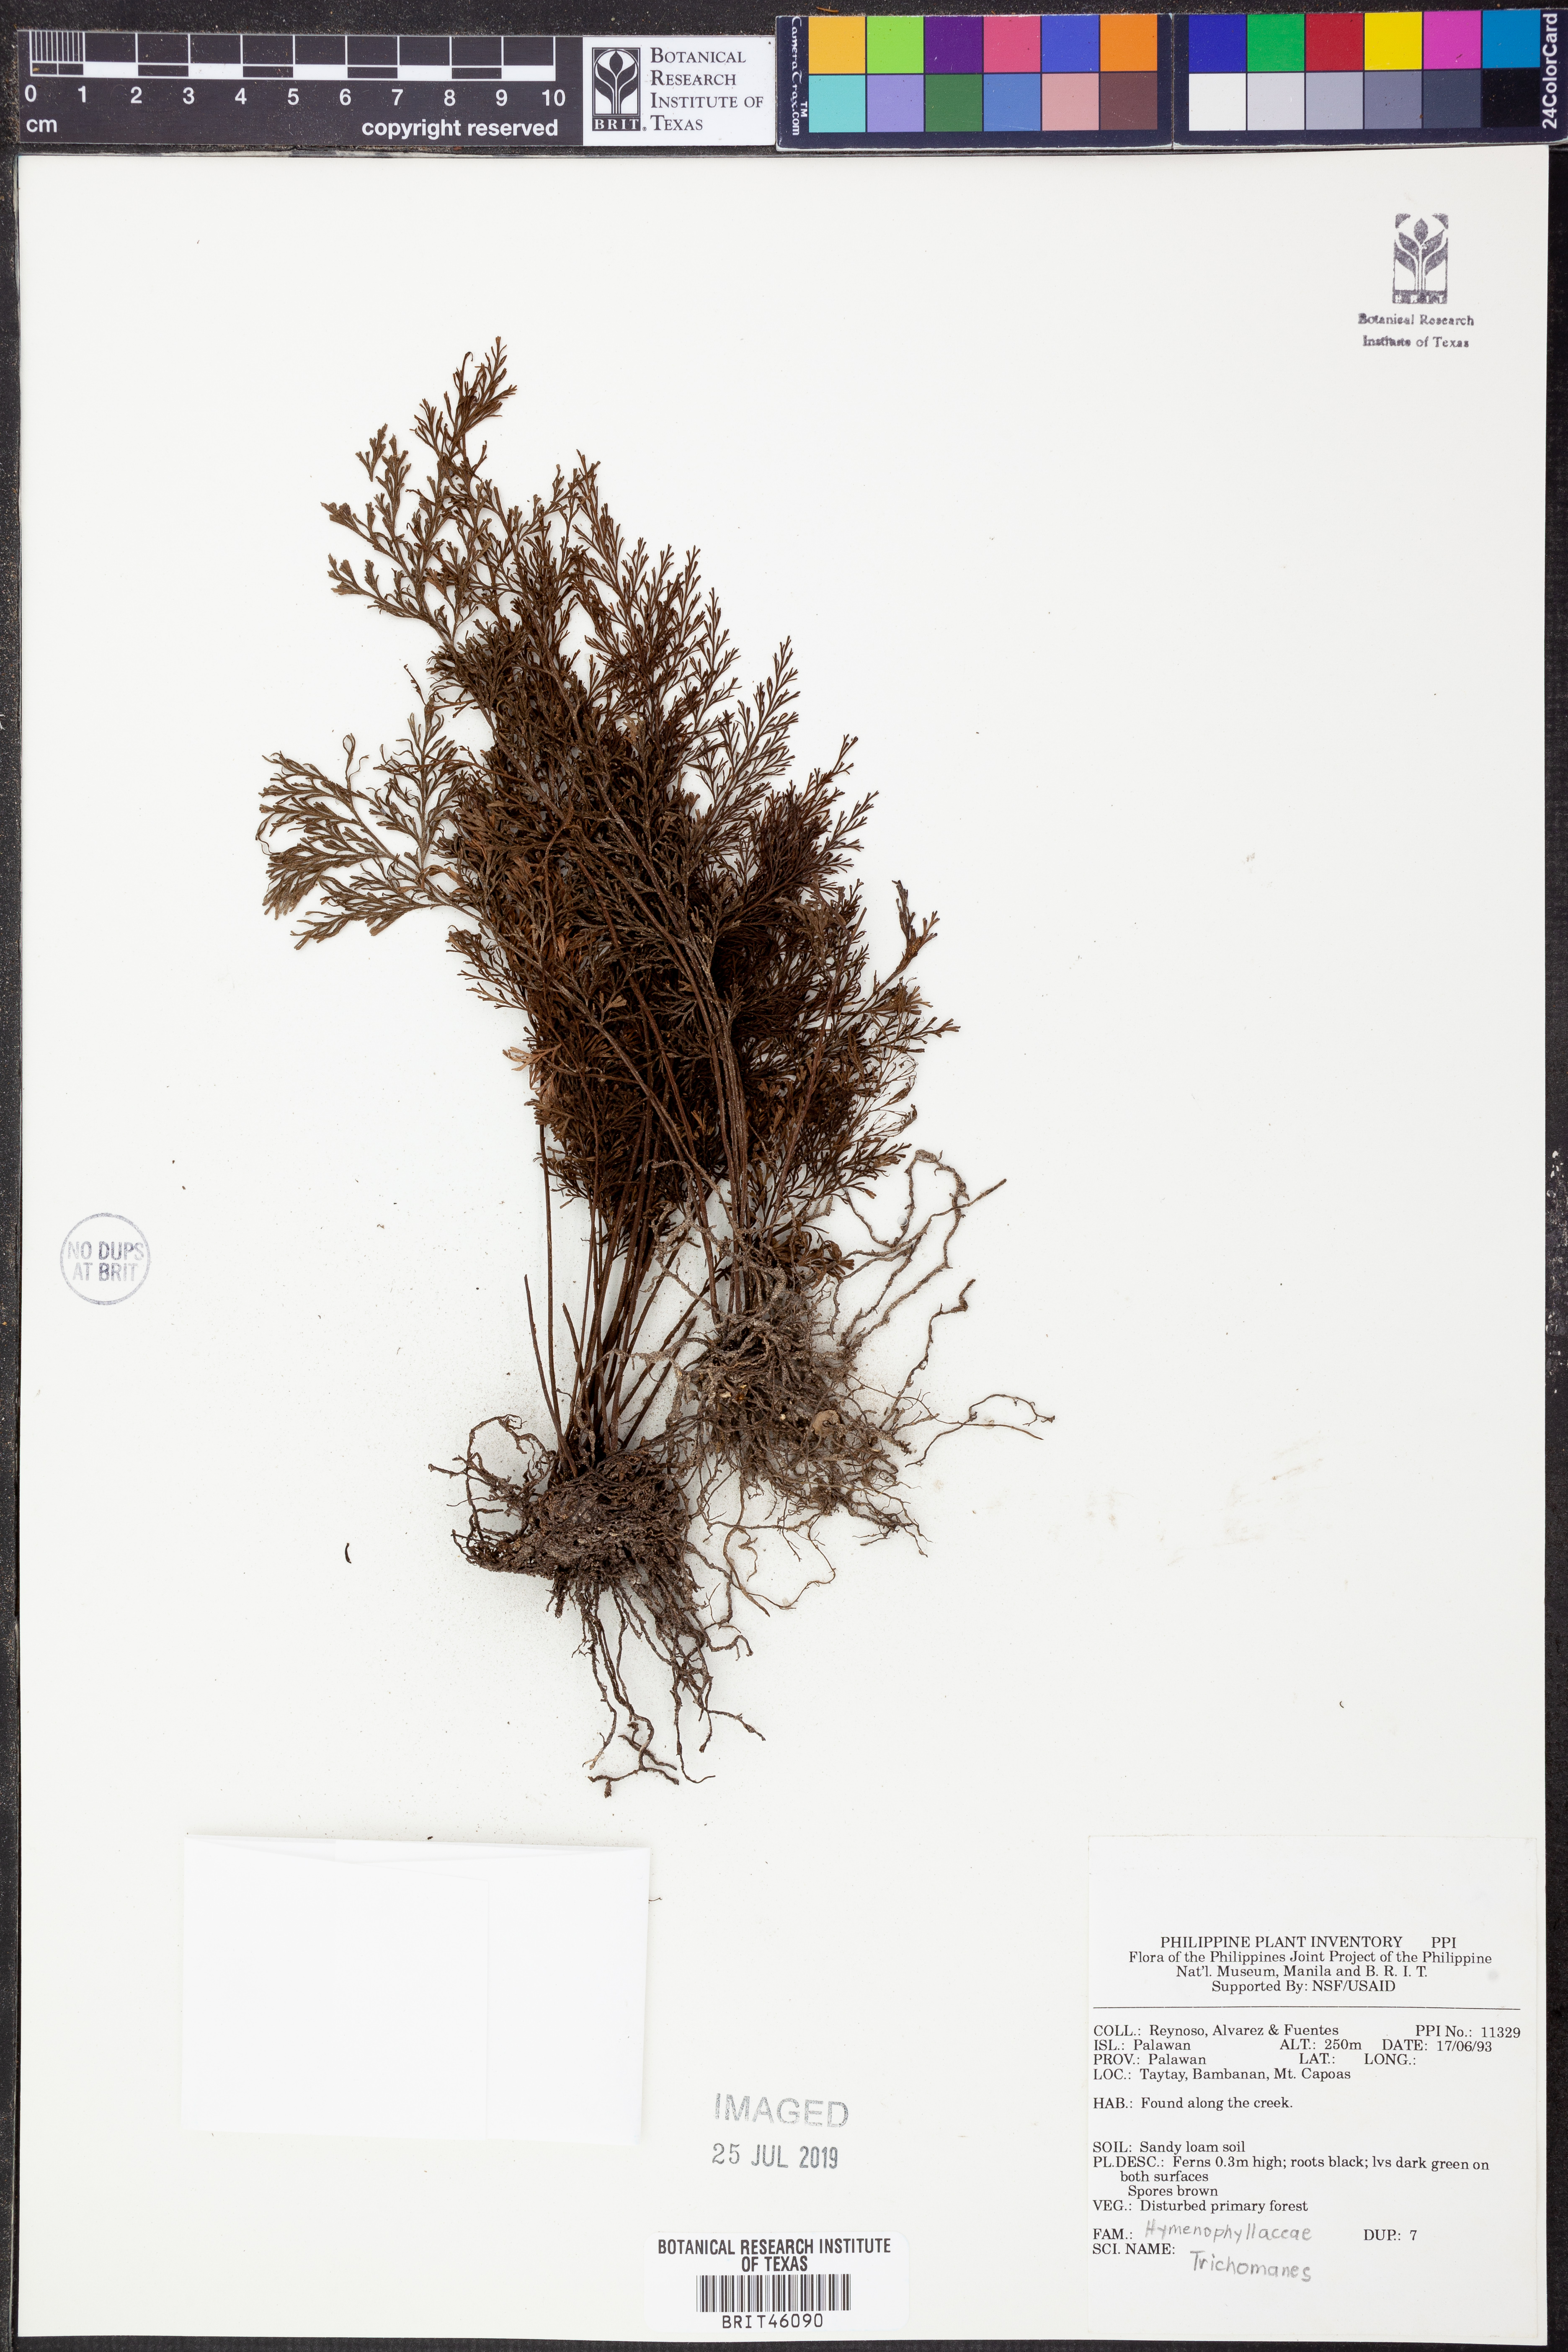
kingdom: Plantae
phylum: Tracheophyta
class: Polypodiopsida
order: Hymenophyllales
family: Hymenophyllaceae
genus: Trichomanes
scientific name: Trichomanes
